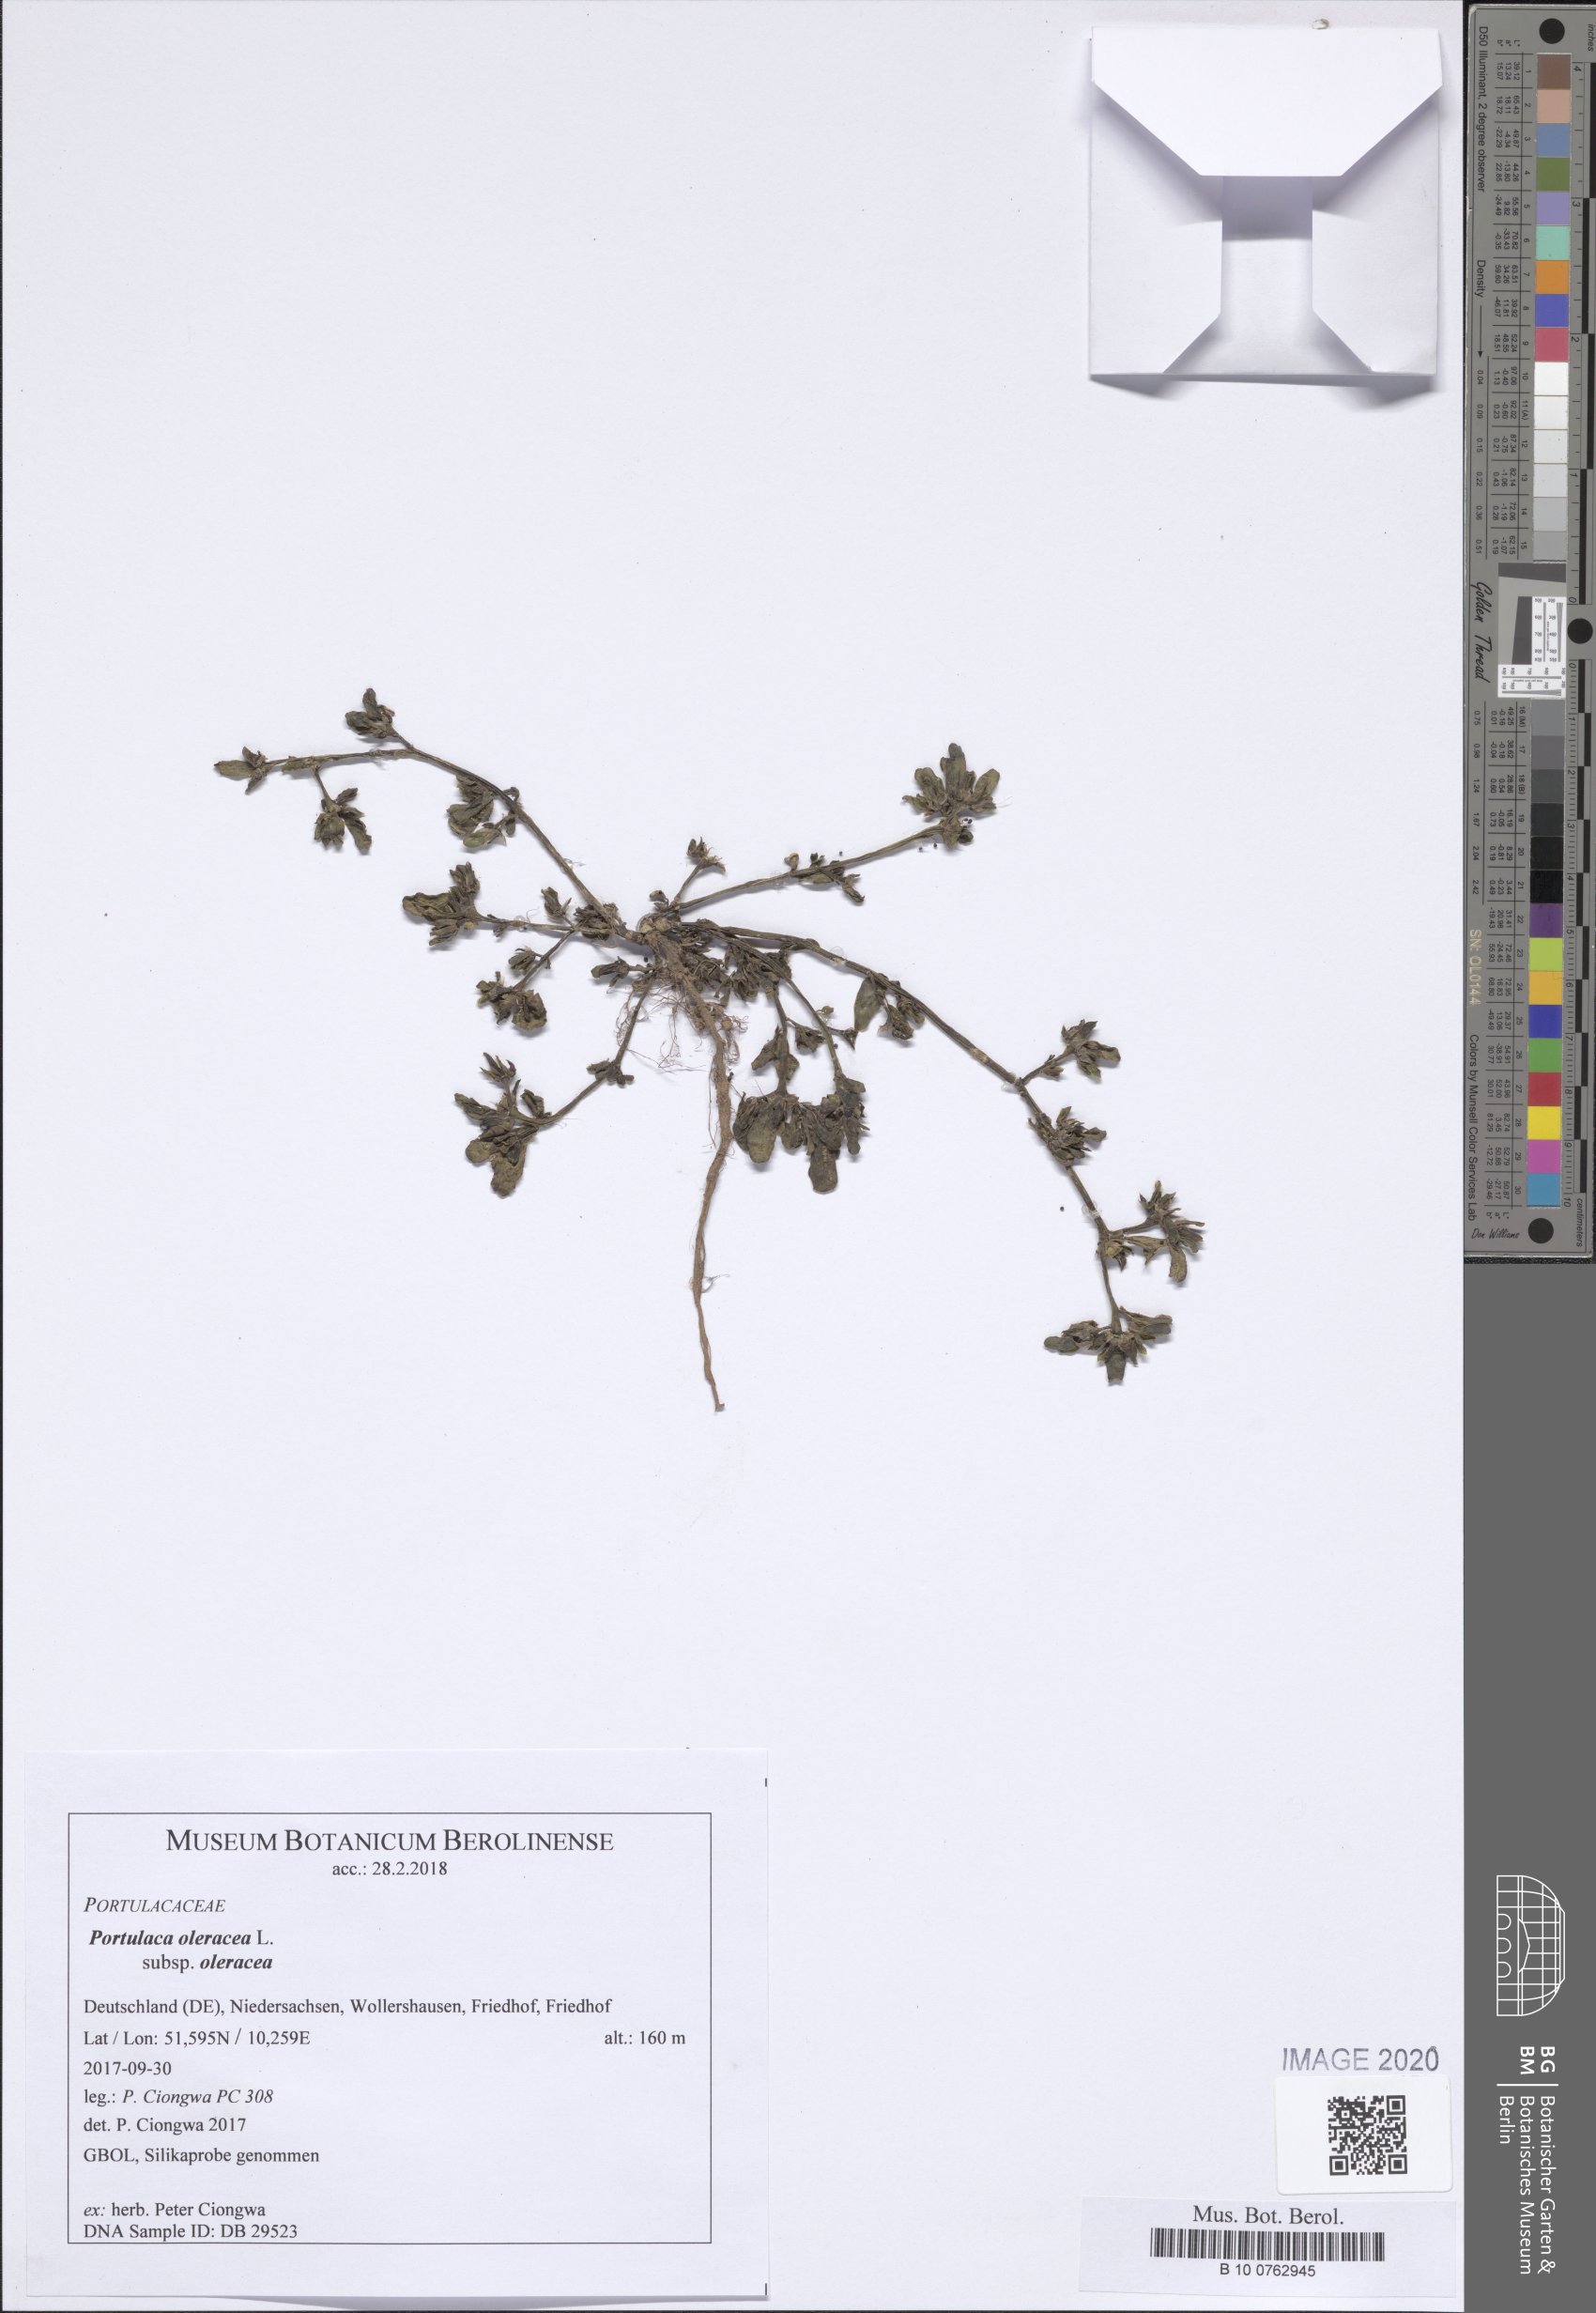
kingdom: Plantae
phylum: Tracheophyta
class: Magnoliopsida
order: Caryophyllales
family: Portulacaceae
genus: Portulaca
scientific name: Portulaca oleracea
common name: Common purslane
